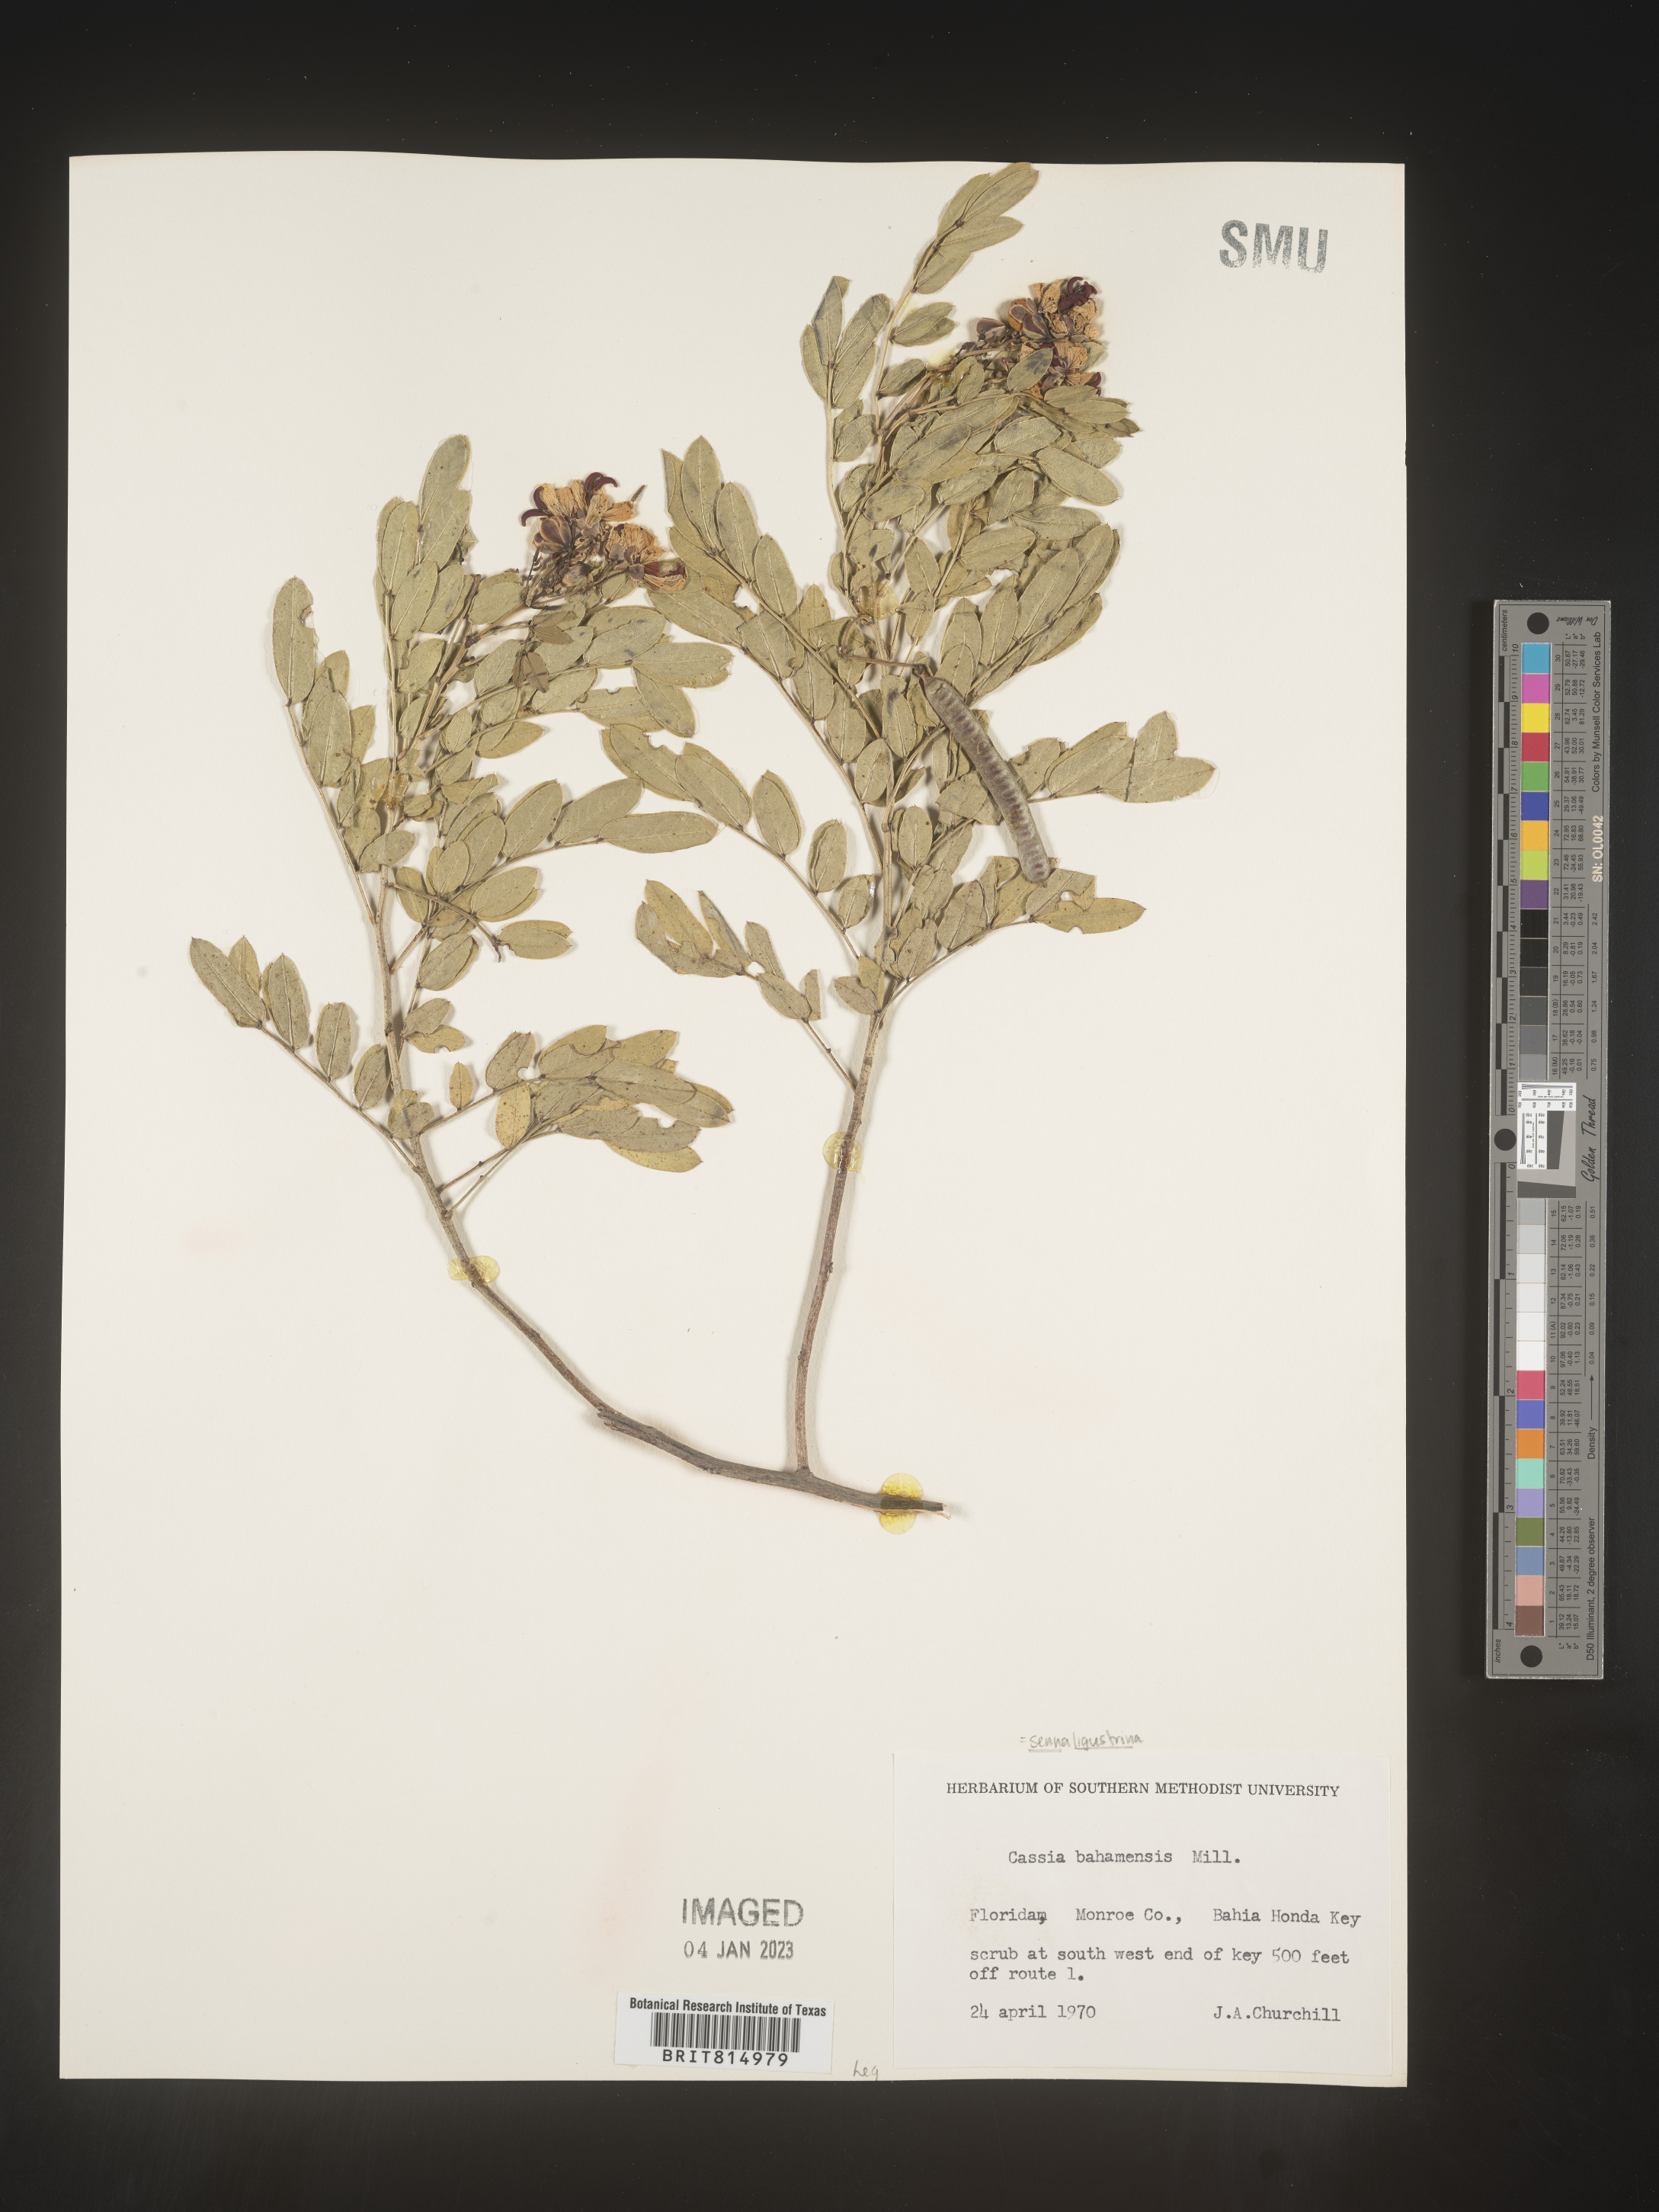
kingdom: Plantae
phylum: Tracheophyta
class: Magnoliopsida
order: Fabales
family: Fabaceae
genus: Cassia
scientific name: Cassia
